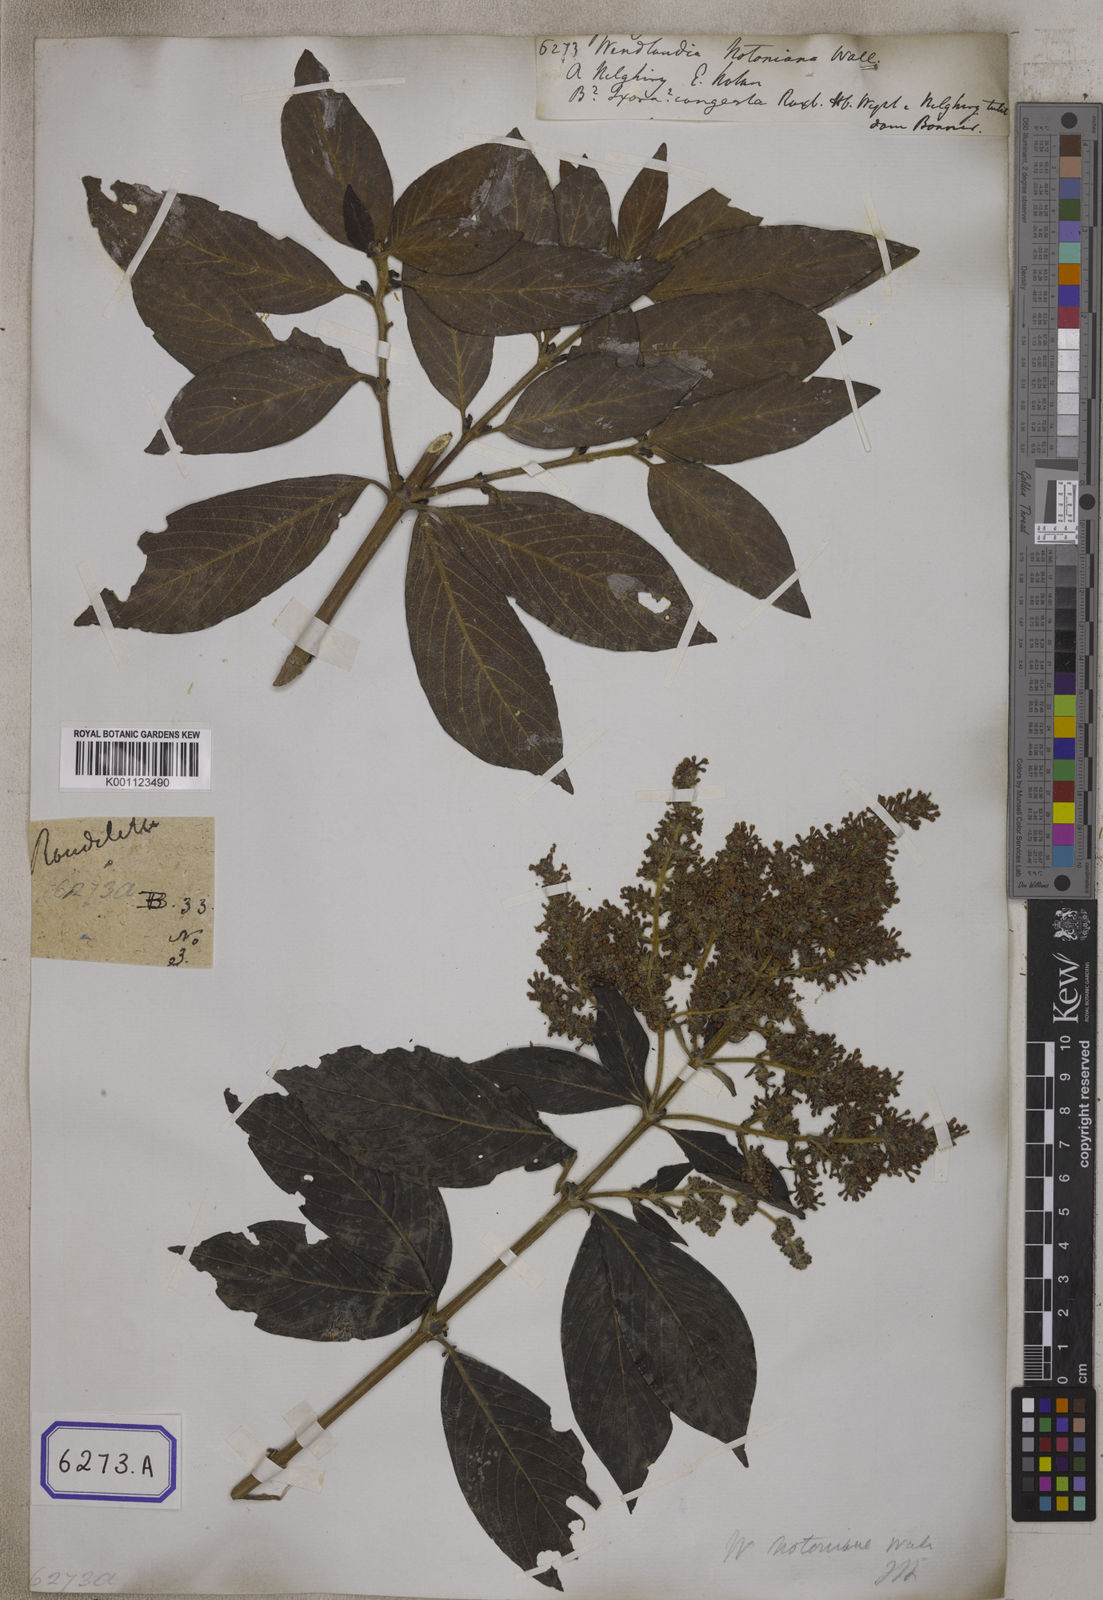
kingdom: Plantae
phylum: Tracheophyta
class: Magnoliopsida
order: Gentianales
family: Rubiaceae
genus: Wendlandia
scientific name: Wendlandia
